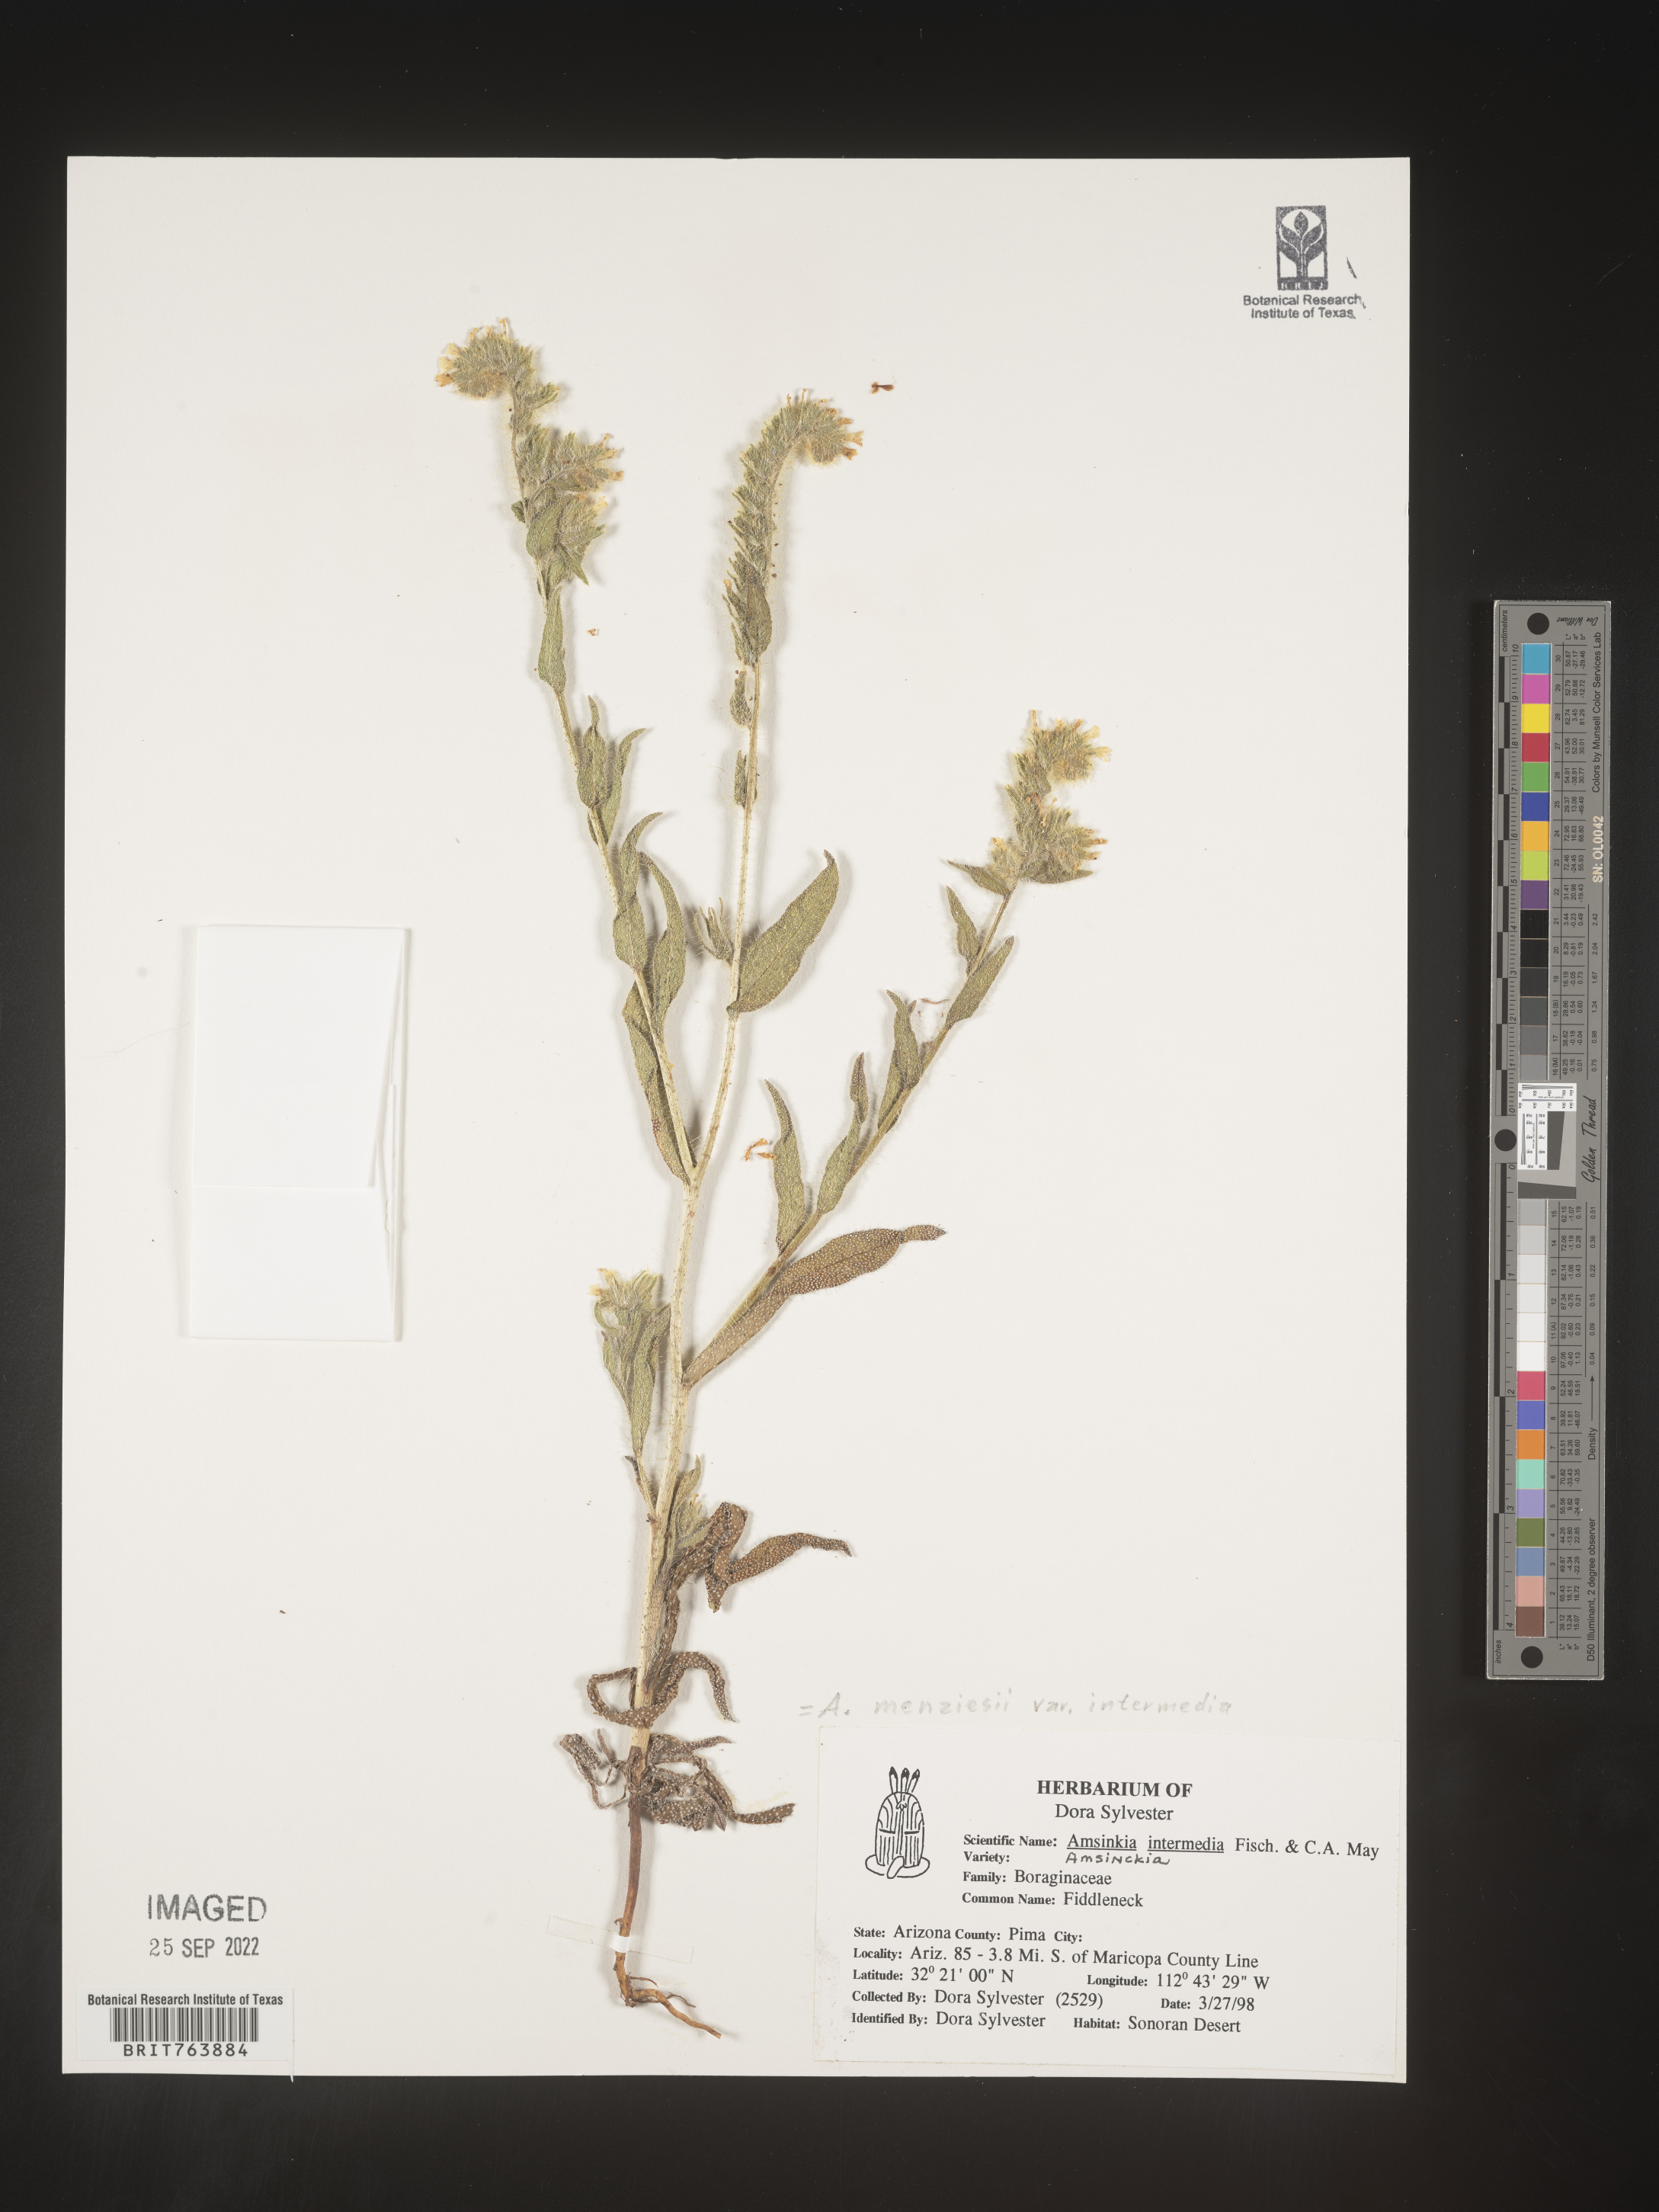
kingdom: Plantae
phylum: Tracheophyta
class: Magnoliopsida
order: Boraginales
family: Boraginaceae
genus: Amsinckia
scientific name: Amsinckia menziesii
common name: Menzies' fiddleneck
